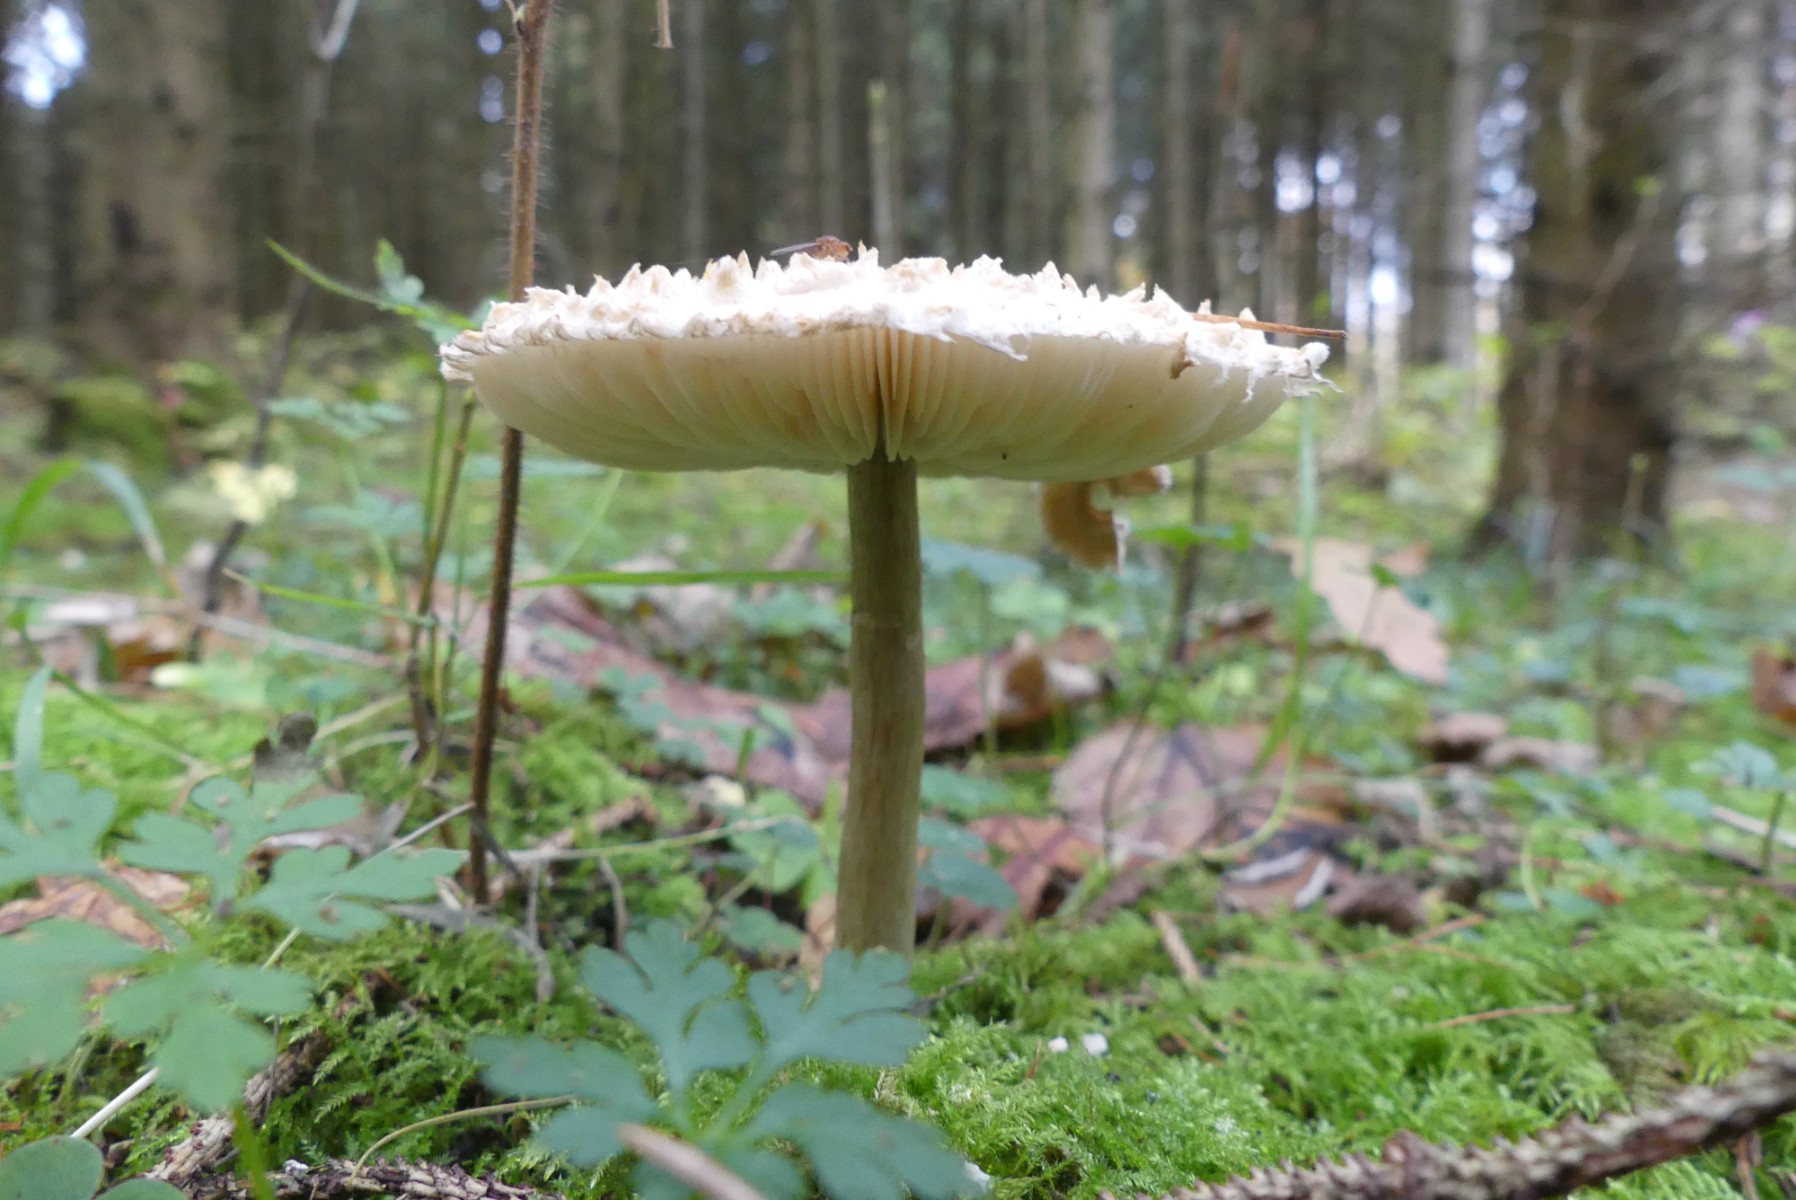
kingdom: Fungi
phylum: Basidiomycota
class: Agaricomycetes
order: Agaricales
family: Agaricaceae
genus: Leucoagaricus
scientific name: Leucoagaricus nympharum
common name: gran-silkehat
